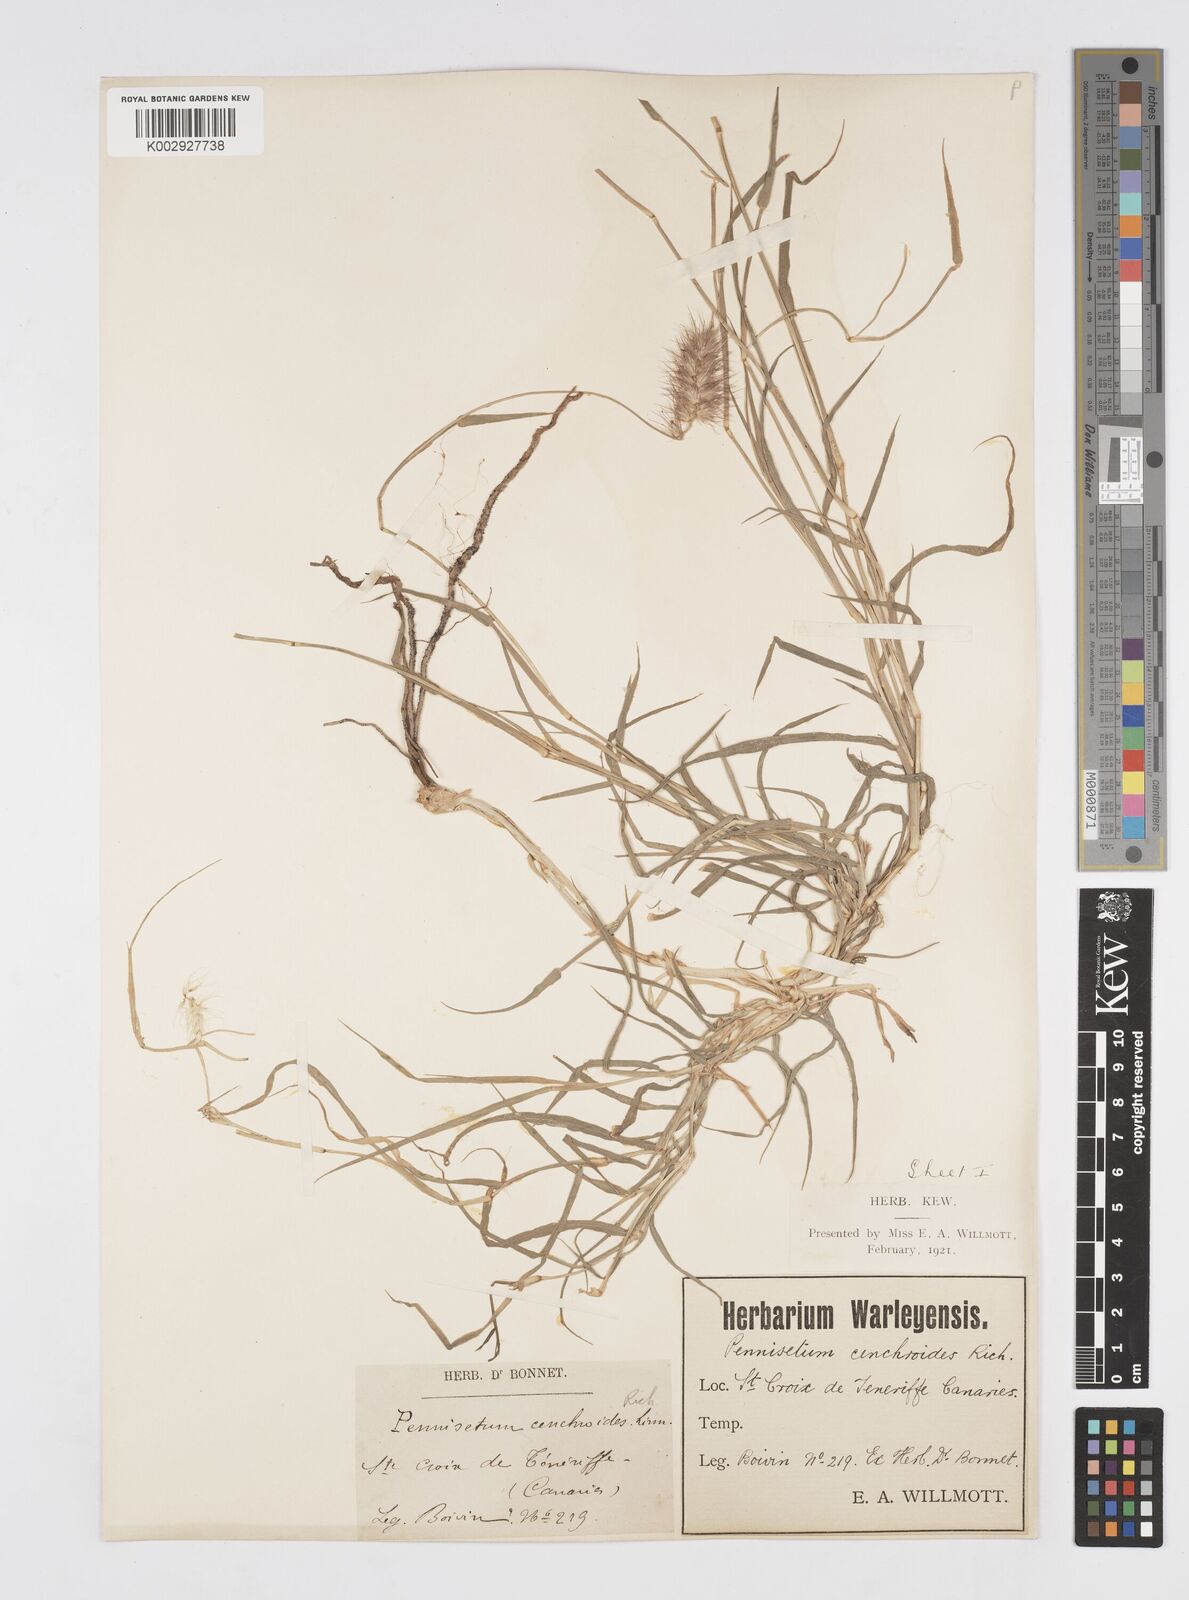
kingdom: Plantae
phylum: Tracheophyta
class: Liliopsida
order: Poales
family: Poaceae
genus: Cenchrus
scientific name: Cenchrus ciliaris
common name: Buffelgrass
